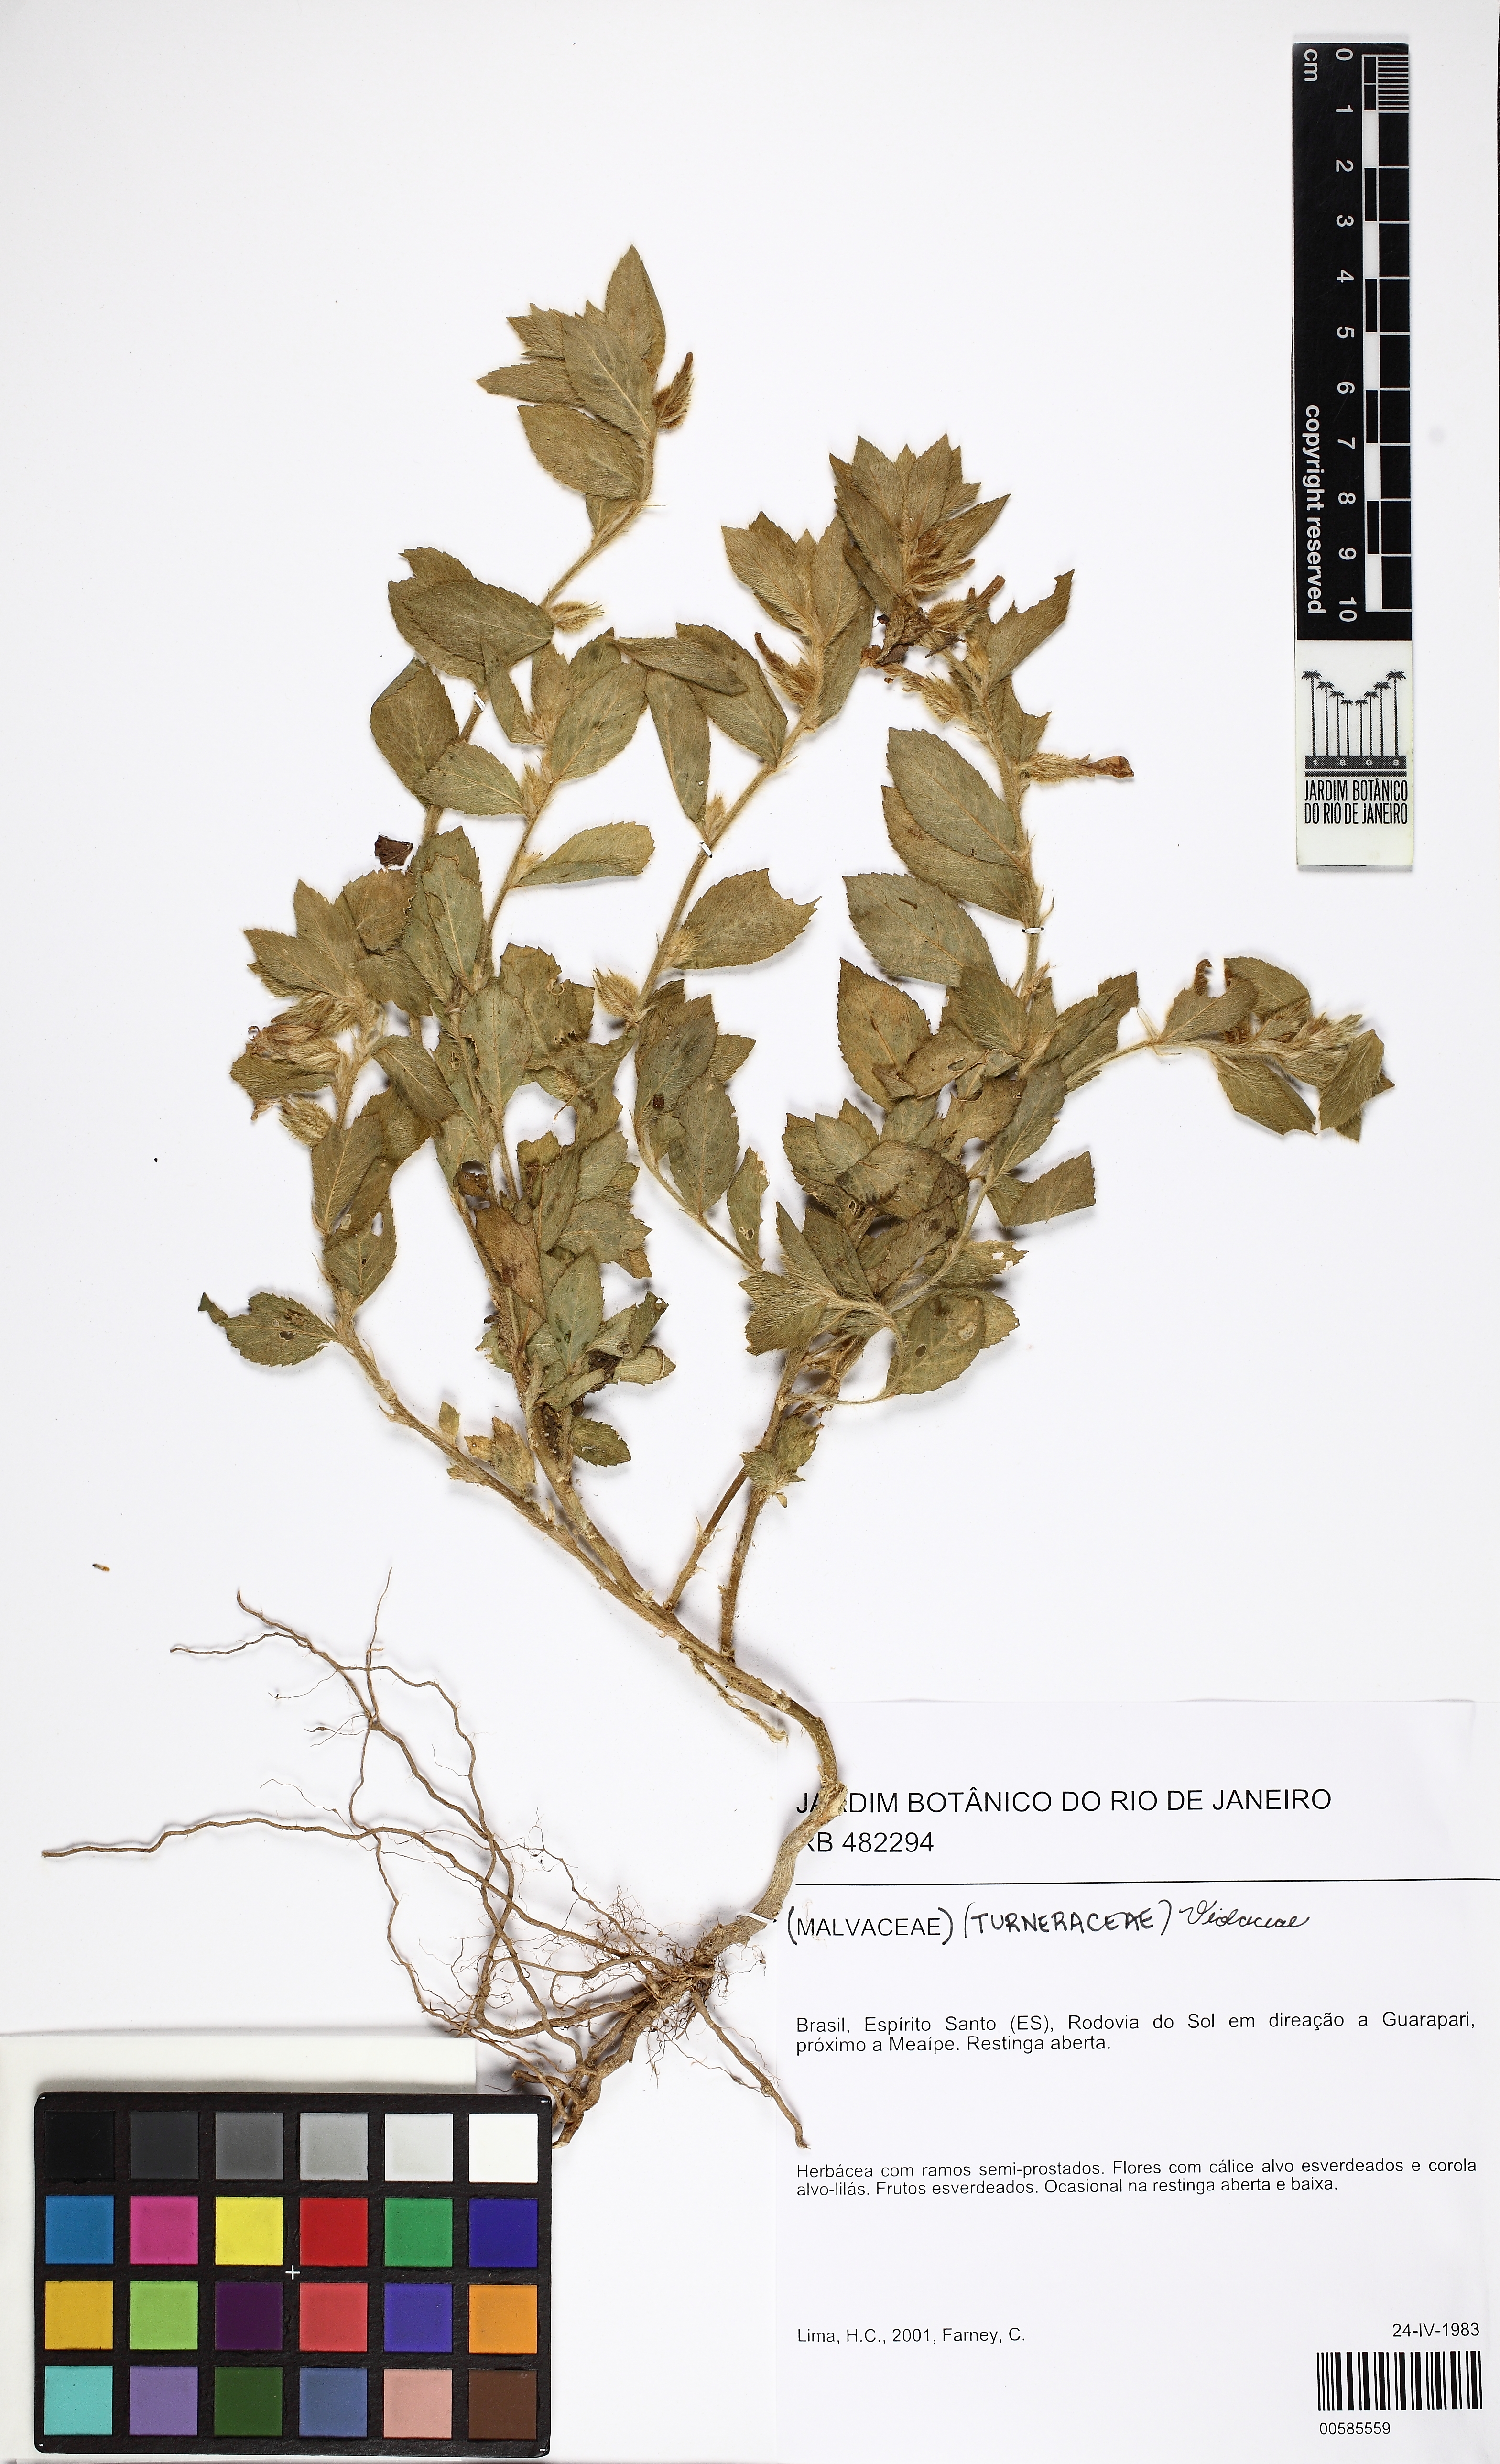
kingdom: Plantae
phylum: Tracheophyta
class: Magnoliopsida
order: Malpighiales
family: Violaceae
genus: Pombalia
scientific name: Pombalia calceolaria
